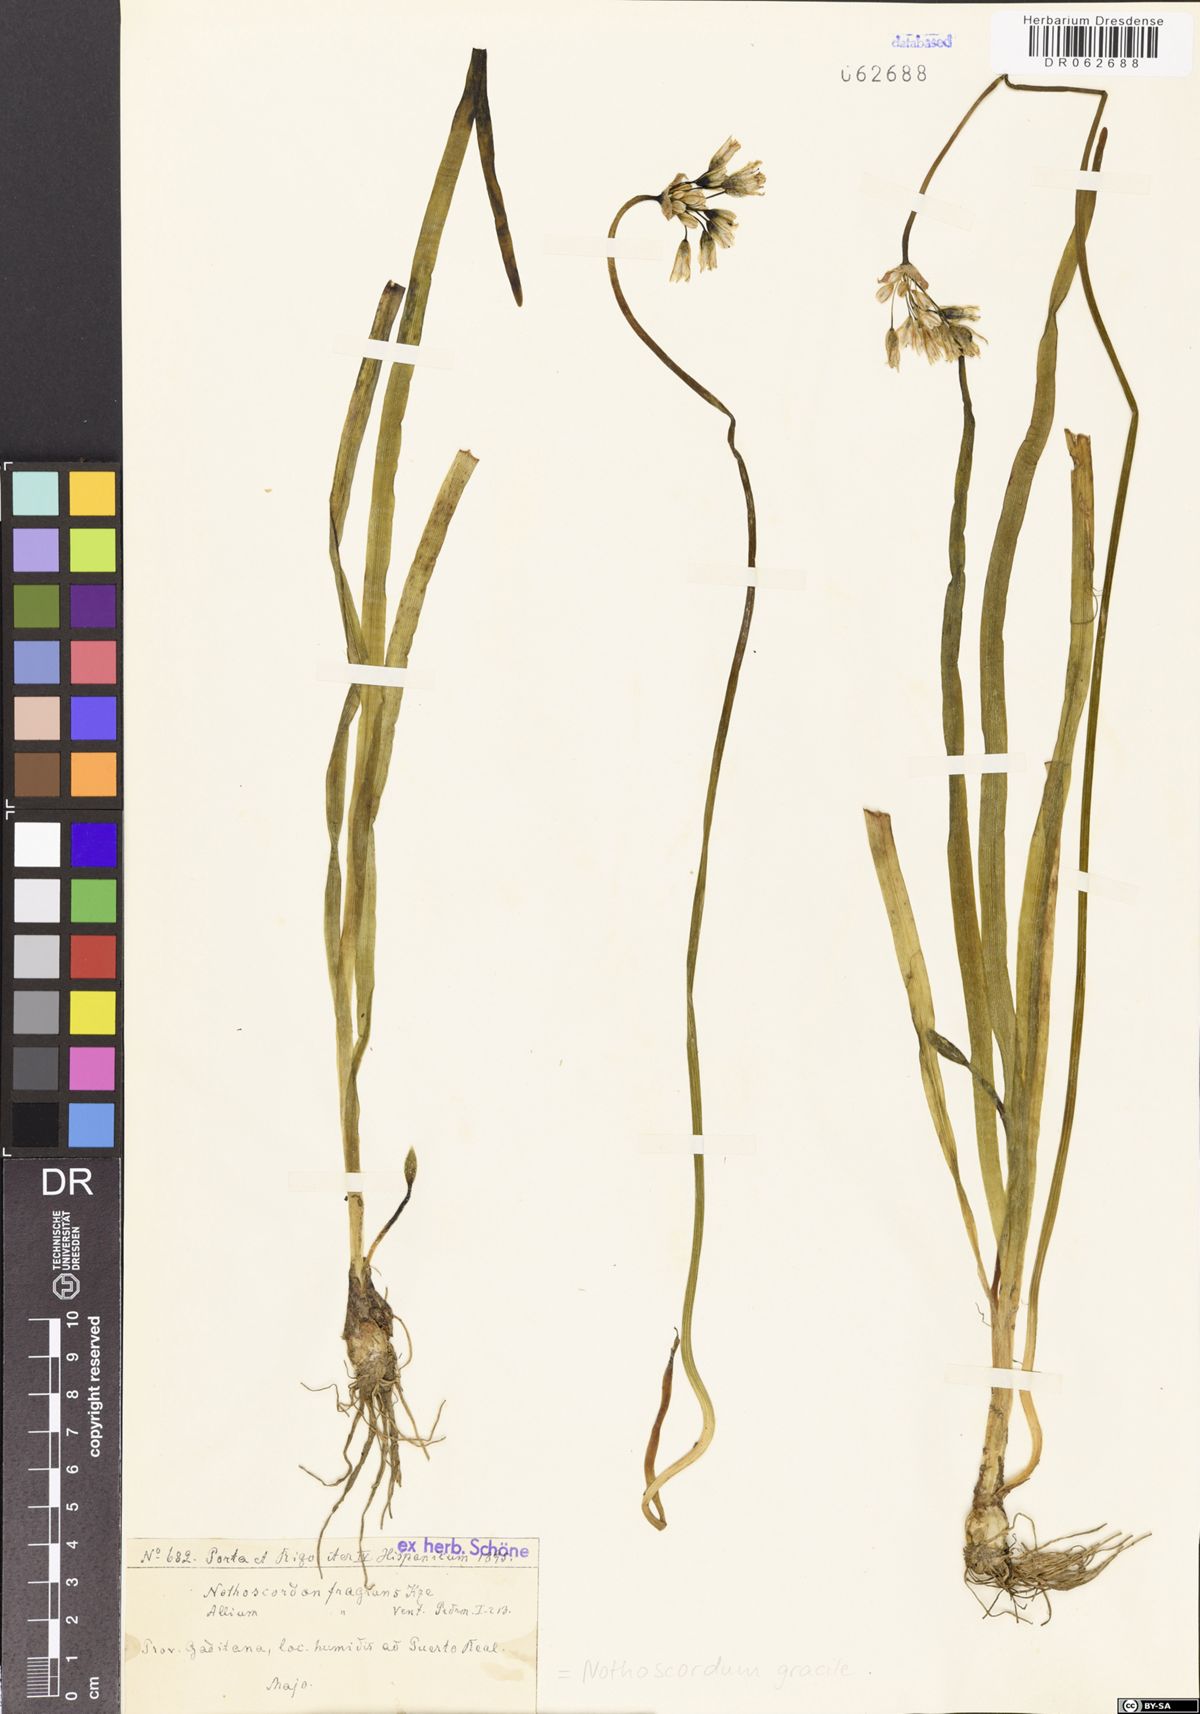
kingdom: Plantae
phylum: Tracheophyta
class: Liliopsida
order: Asparagales
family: Amaryllidaceae
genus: Nothoscordum
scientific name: Nothoscordum gracile
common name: Slender false garlic
